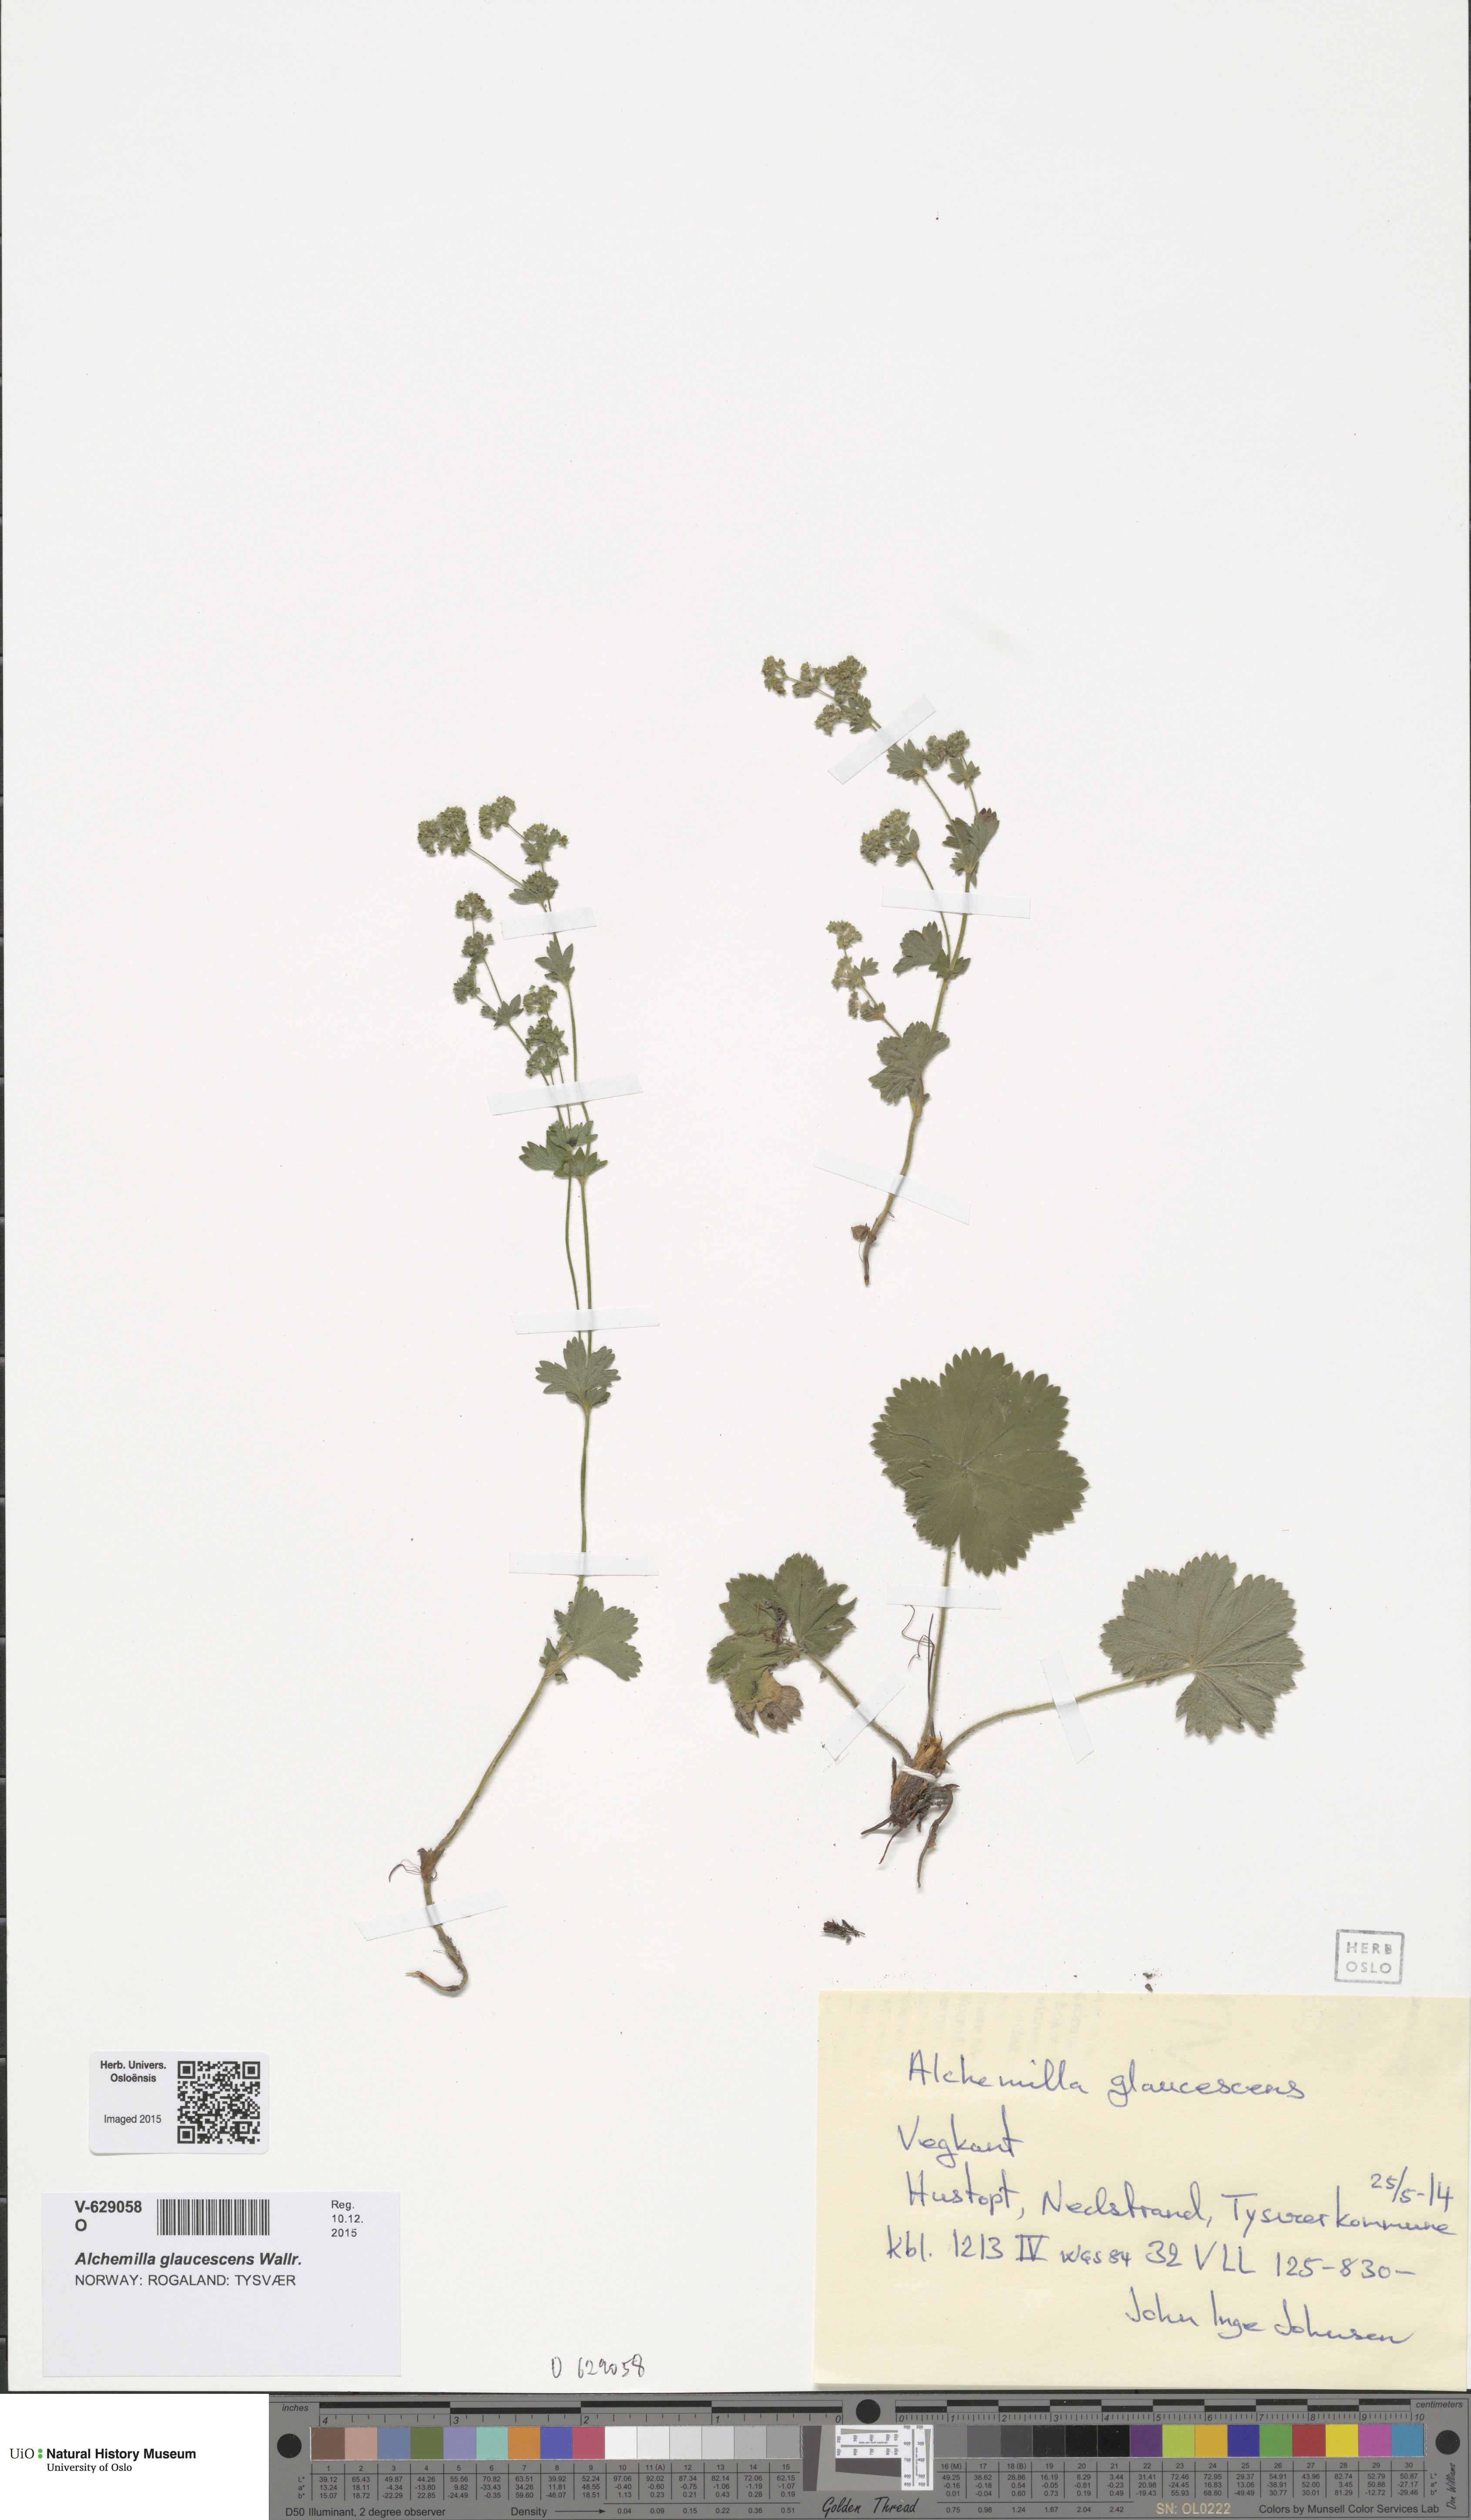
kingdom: Plantae
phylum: Tracheophyta
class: Magnoliopsida
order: Rosales
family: Rosaceae
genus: Alchemilla
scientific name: Alchemilla glaucescens
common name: Silky lady's mantle
